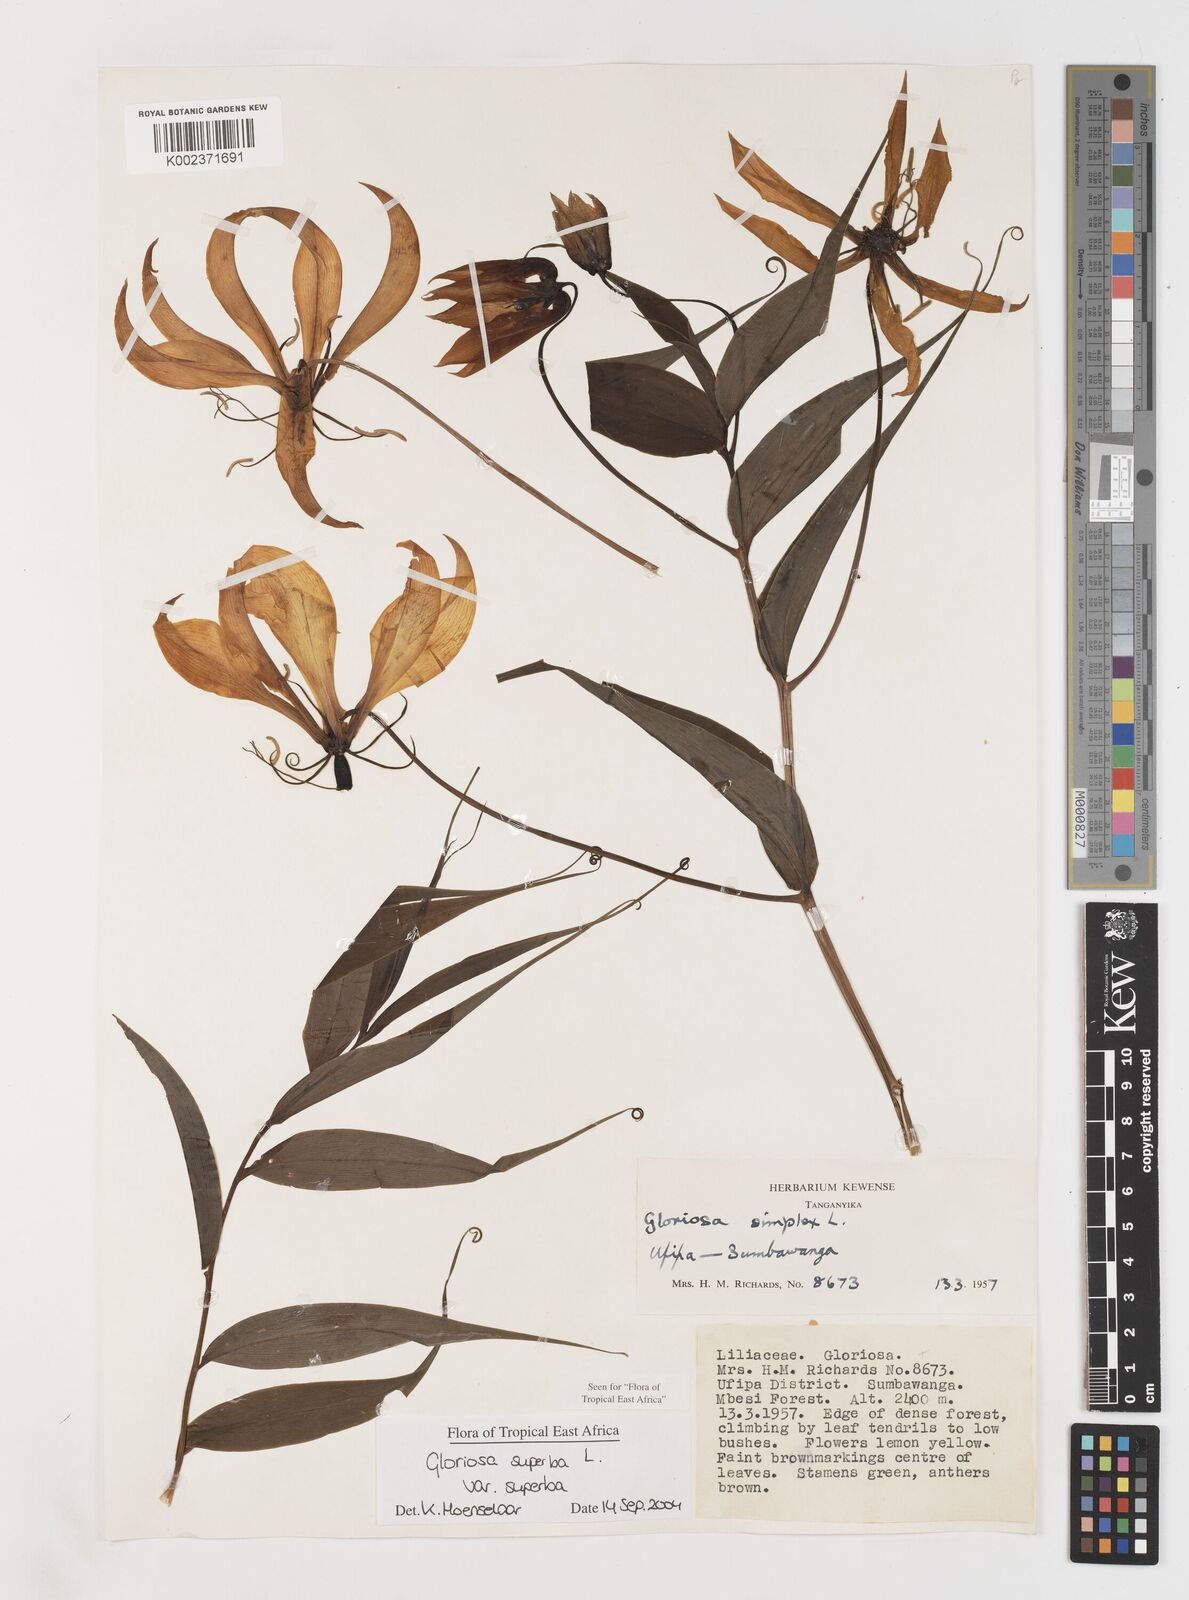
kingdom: Plantae
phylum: Tracheophyta
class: Liliopsida
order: Liliales
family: Colchicaceae
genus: Gloriosa
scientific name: Gloriosa simplex
